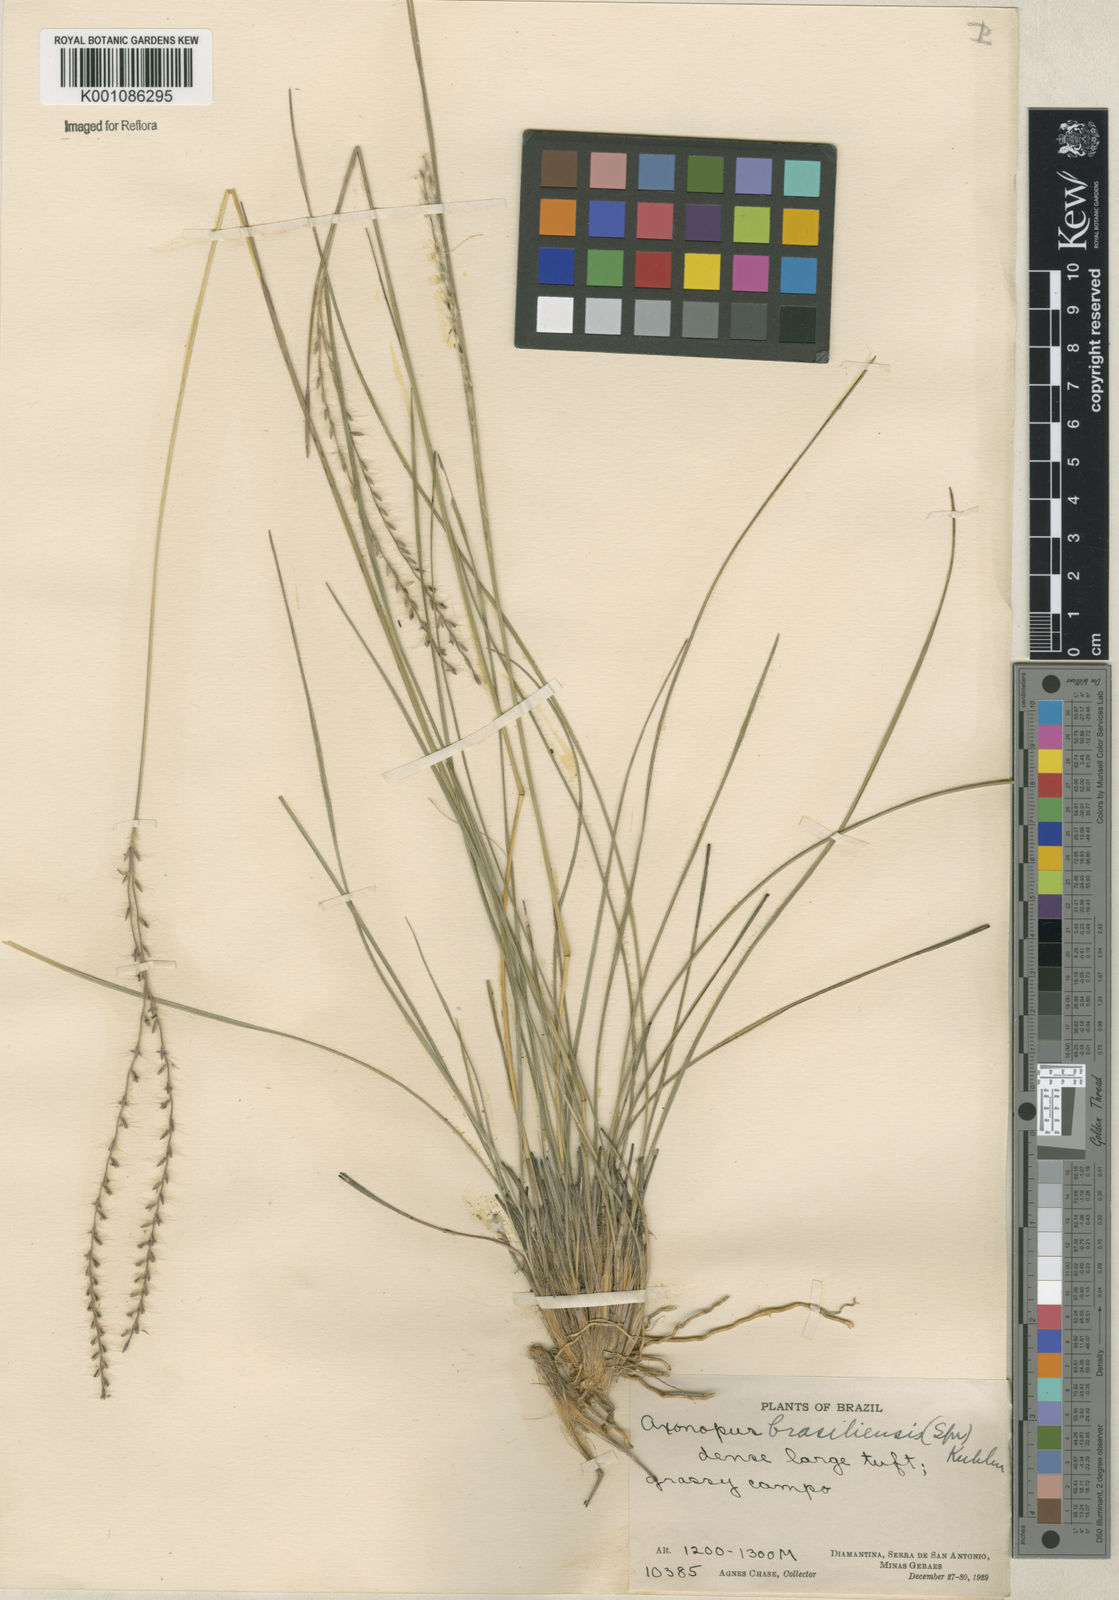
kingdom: Plantae
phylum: Tracheophyta
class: Liliopsida
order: Poales
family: Poaceae
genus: Axonopus
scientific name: Axonopus brasiliensis
